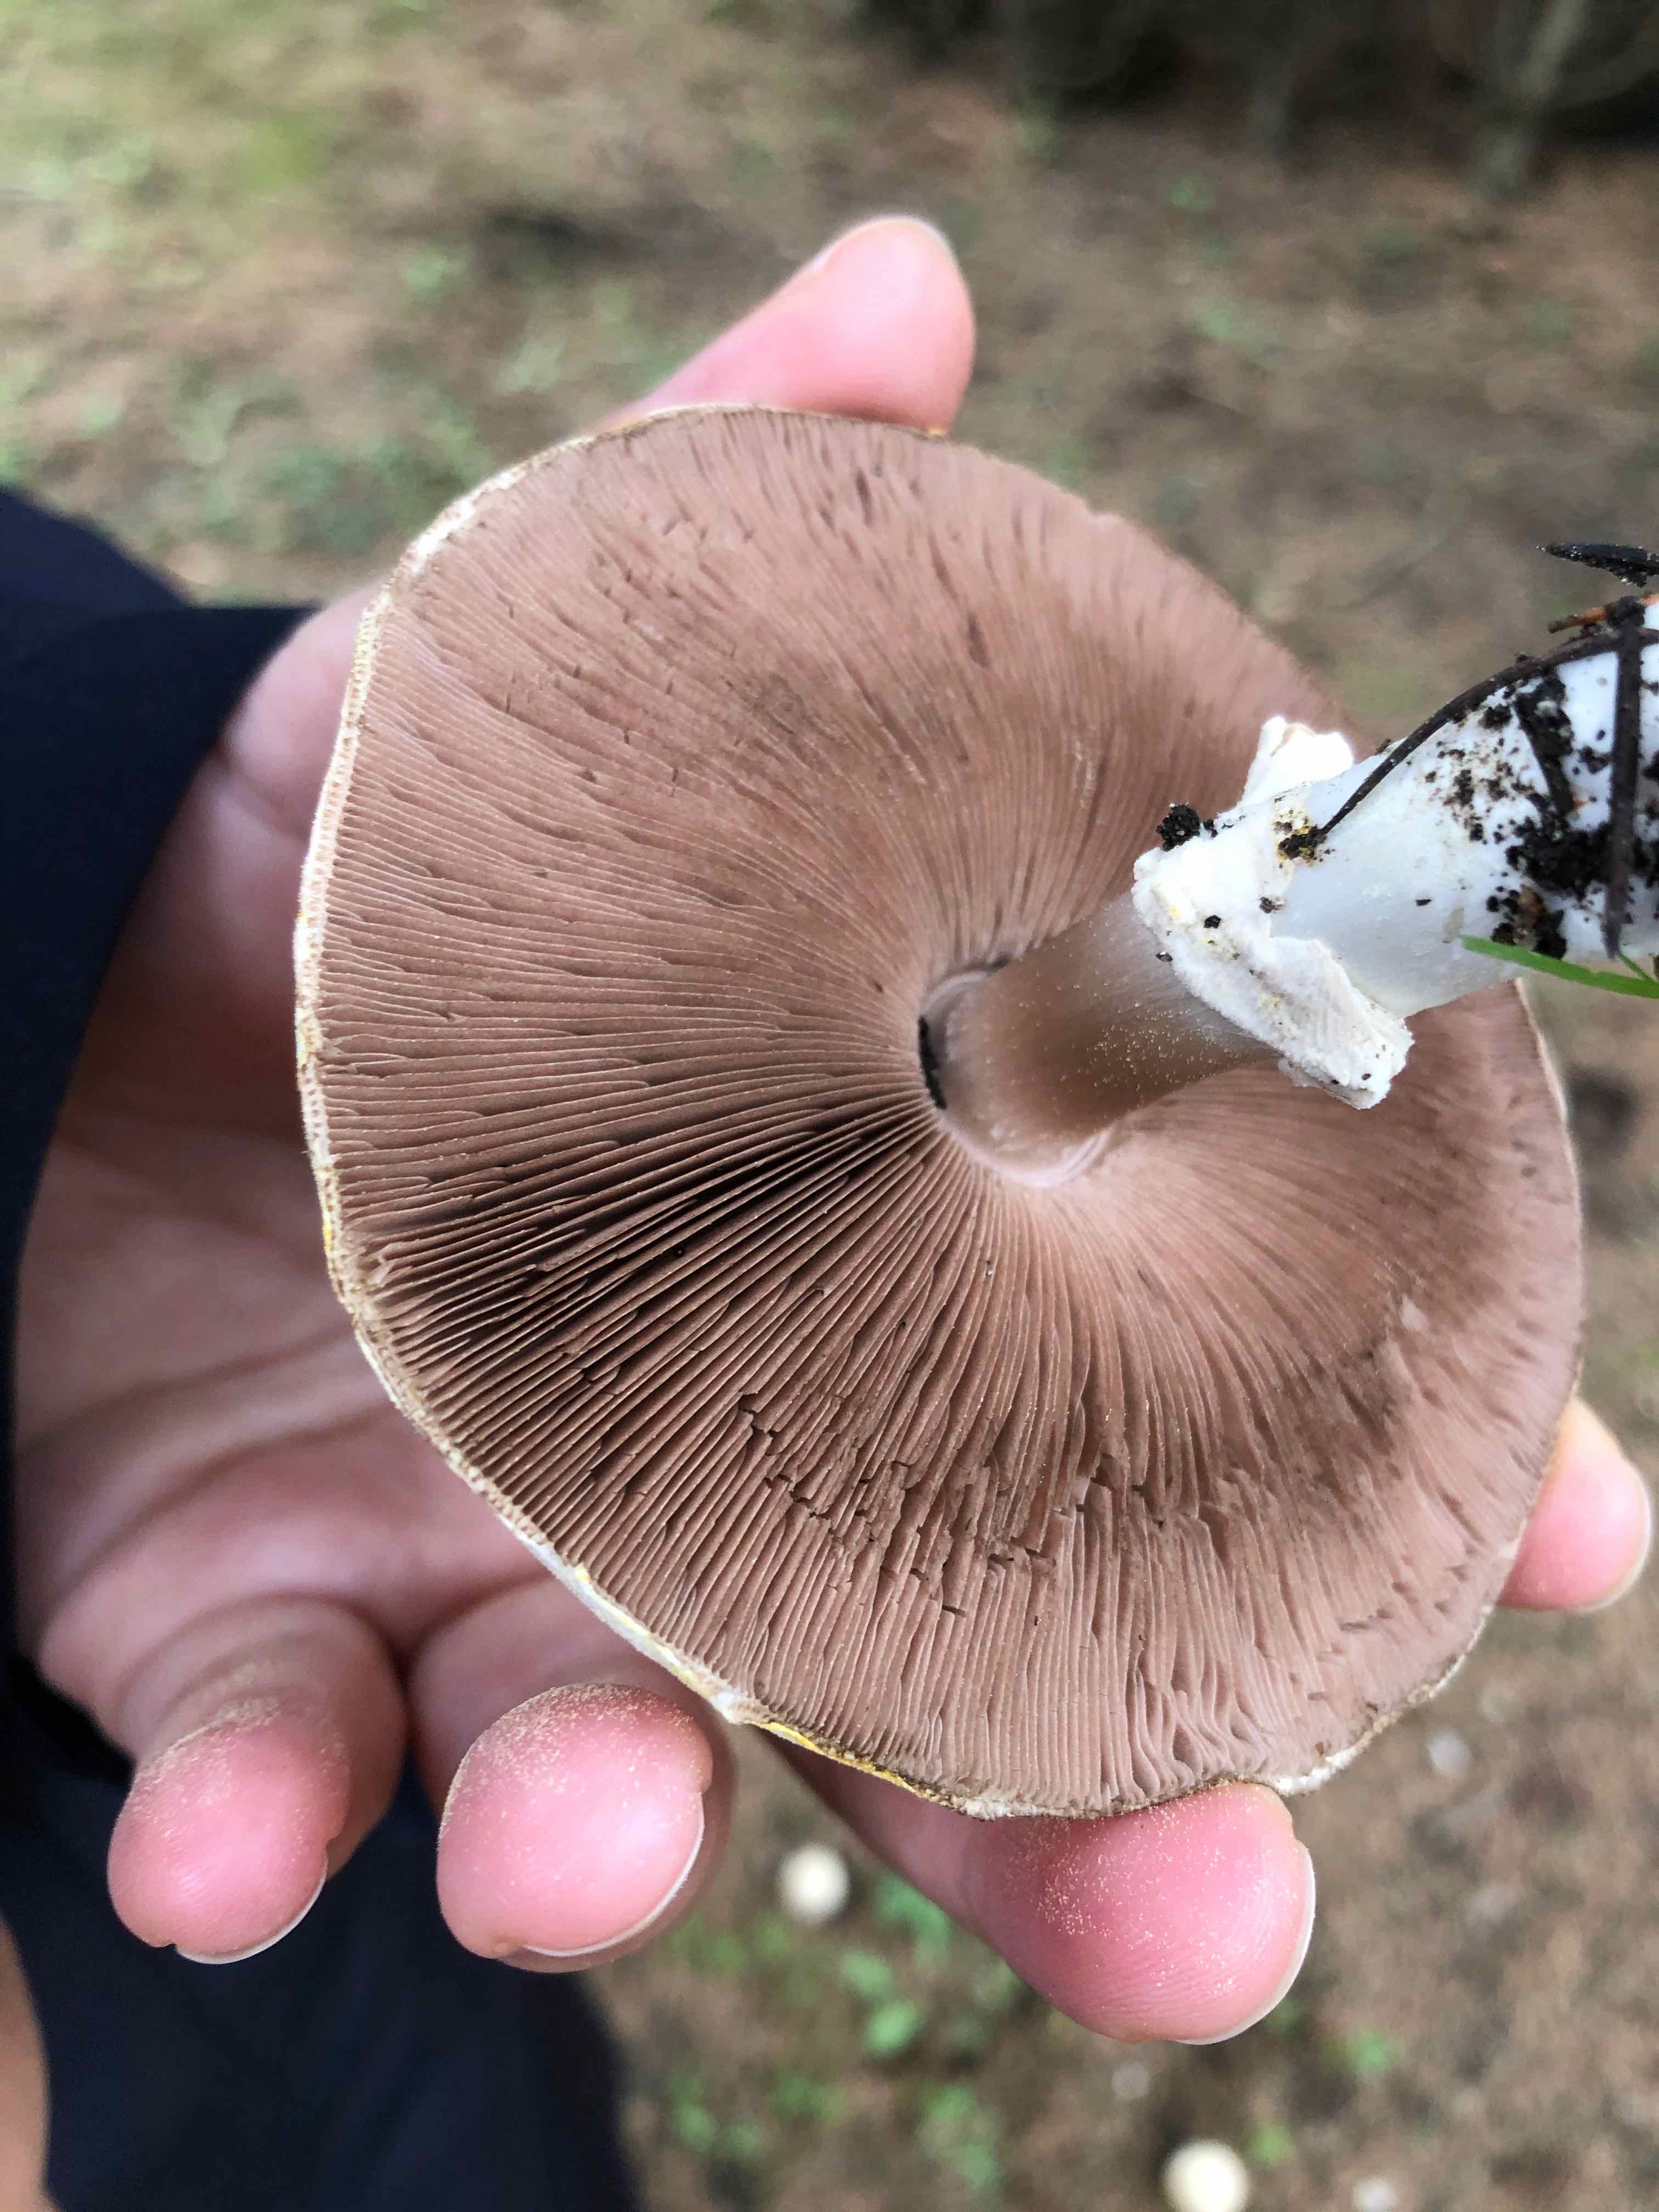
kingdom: Fungi
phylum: Basidiomycota
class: Agaricomycetes
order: Agaricales
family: Agaricaceae
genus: Agaricus
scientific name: Agaricus xanthodermus
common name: karbol-champignon
